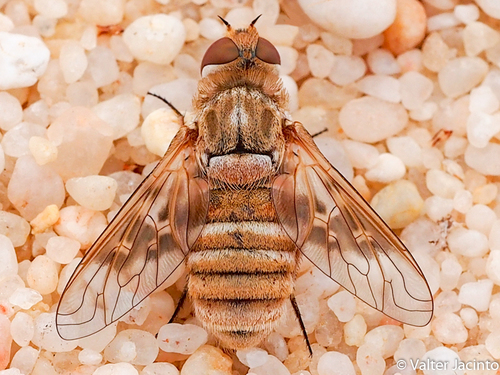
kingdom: Animalia
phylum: Arthropoda
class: Insecta
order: Diptera
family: Bombyliidae
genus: Thyridanthrax
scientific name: Thyridanthrax nebulosus
